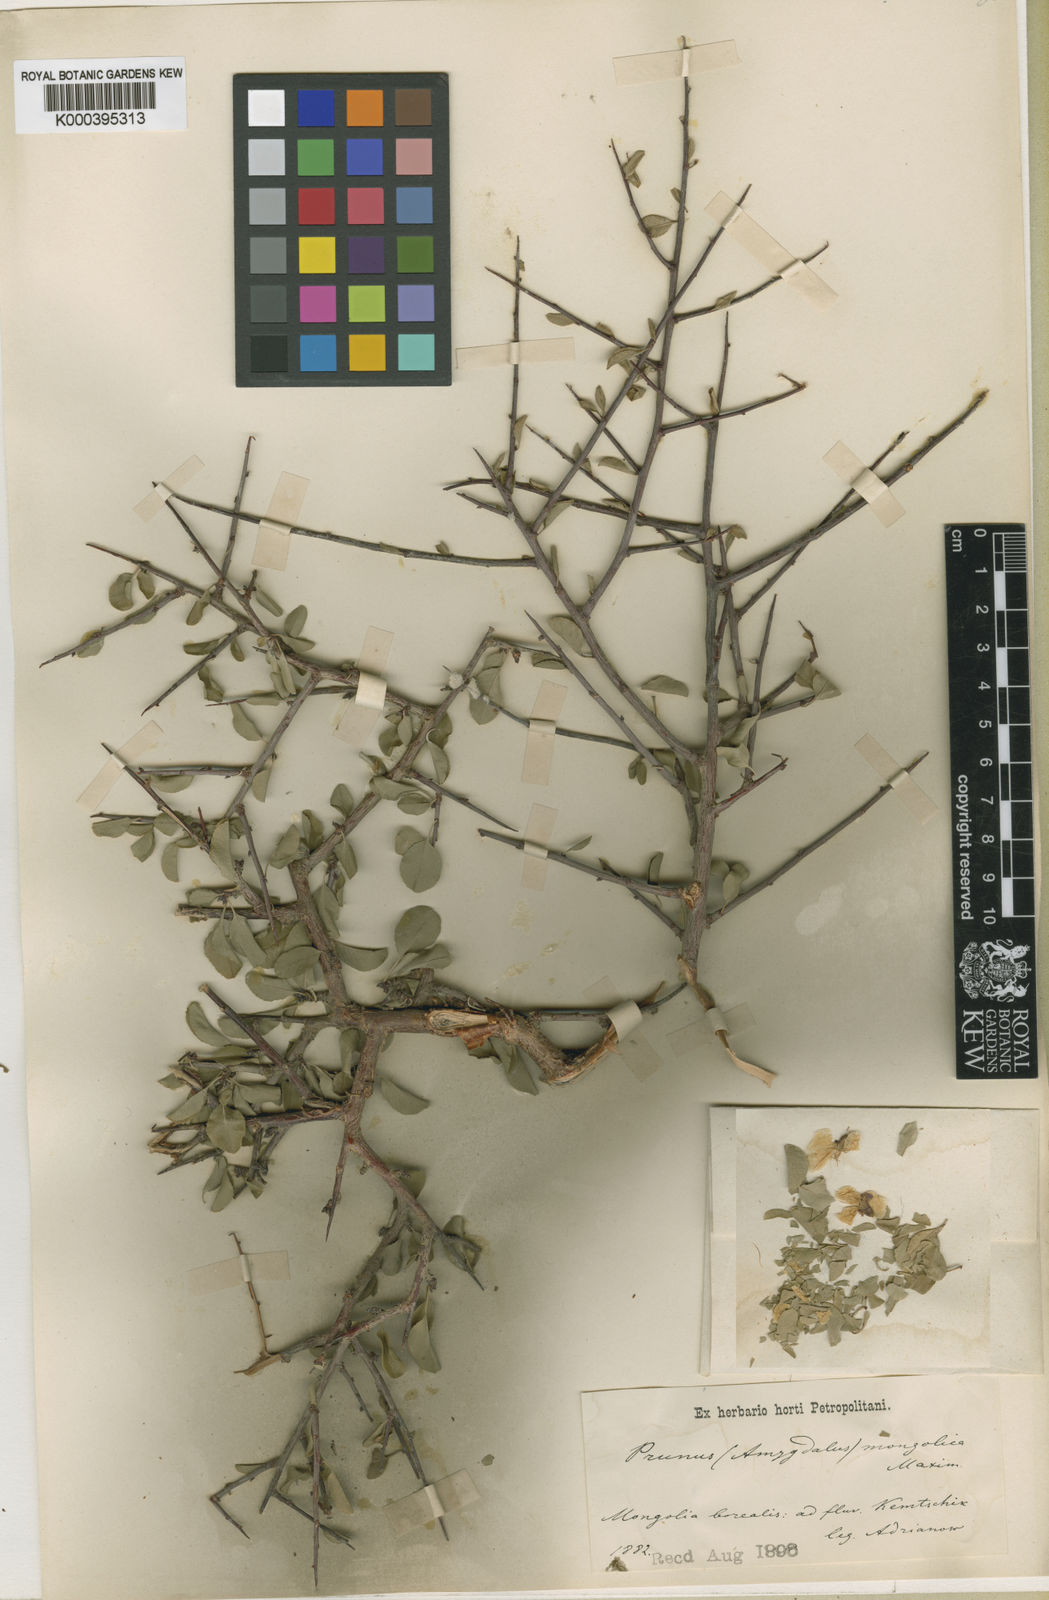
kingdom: Plantae
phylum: Tracheophyta
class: Magnoliopsida
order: Rosales
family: Rosaceae
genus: Prunus
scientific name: Prunus mongolica
